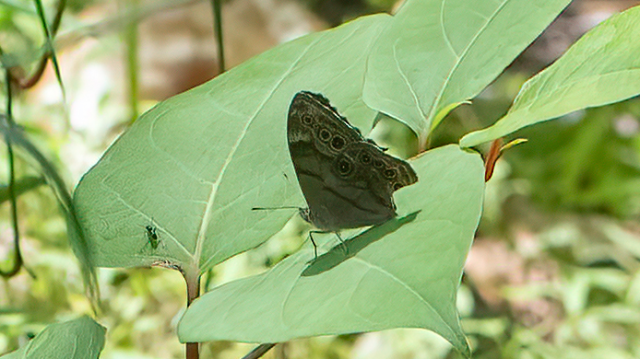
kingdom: Animalia
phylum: Arthropoda
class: Insecta
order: Lepidoptera
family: Nymphalidae
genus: Lethe
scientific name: Lethe anthedon
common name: Northern Pearly-Eye
